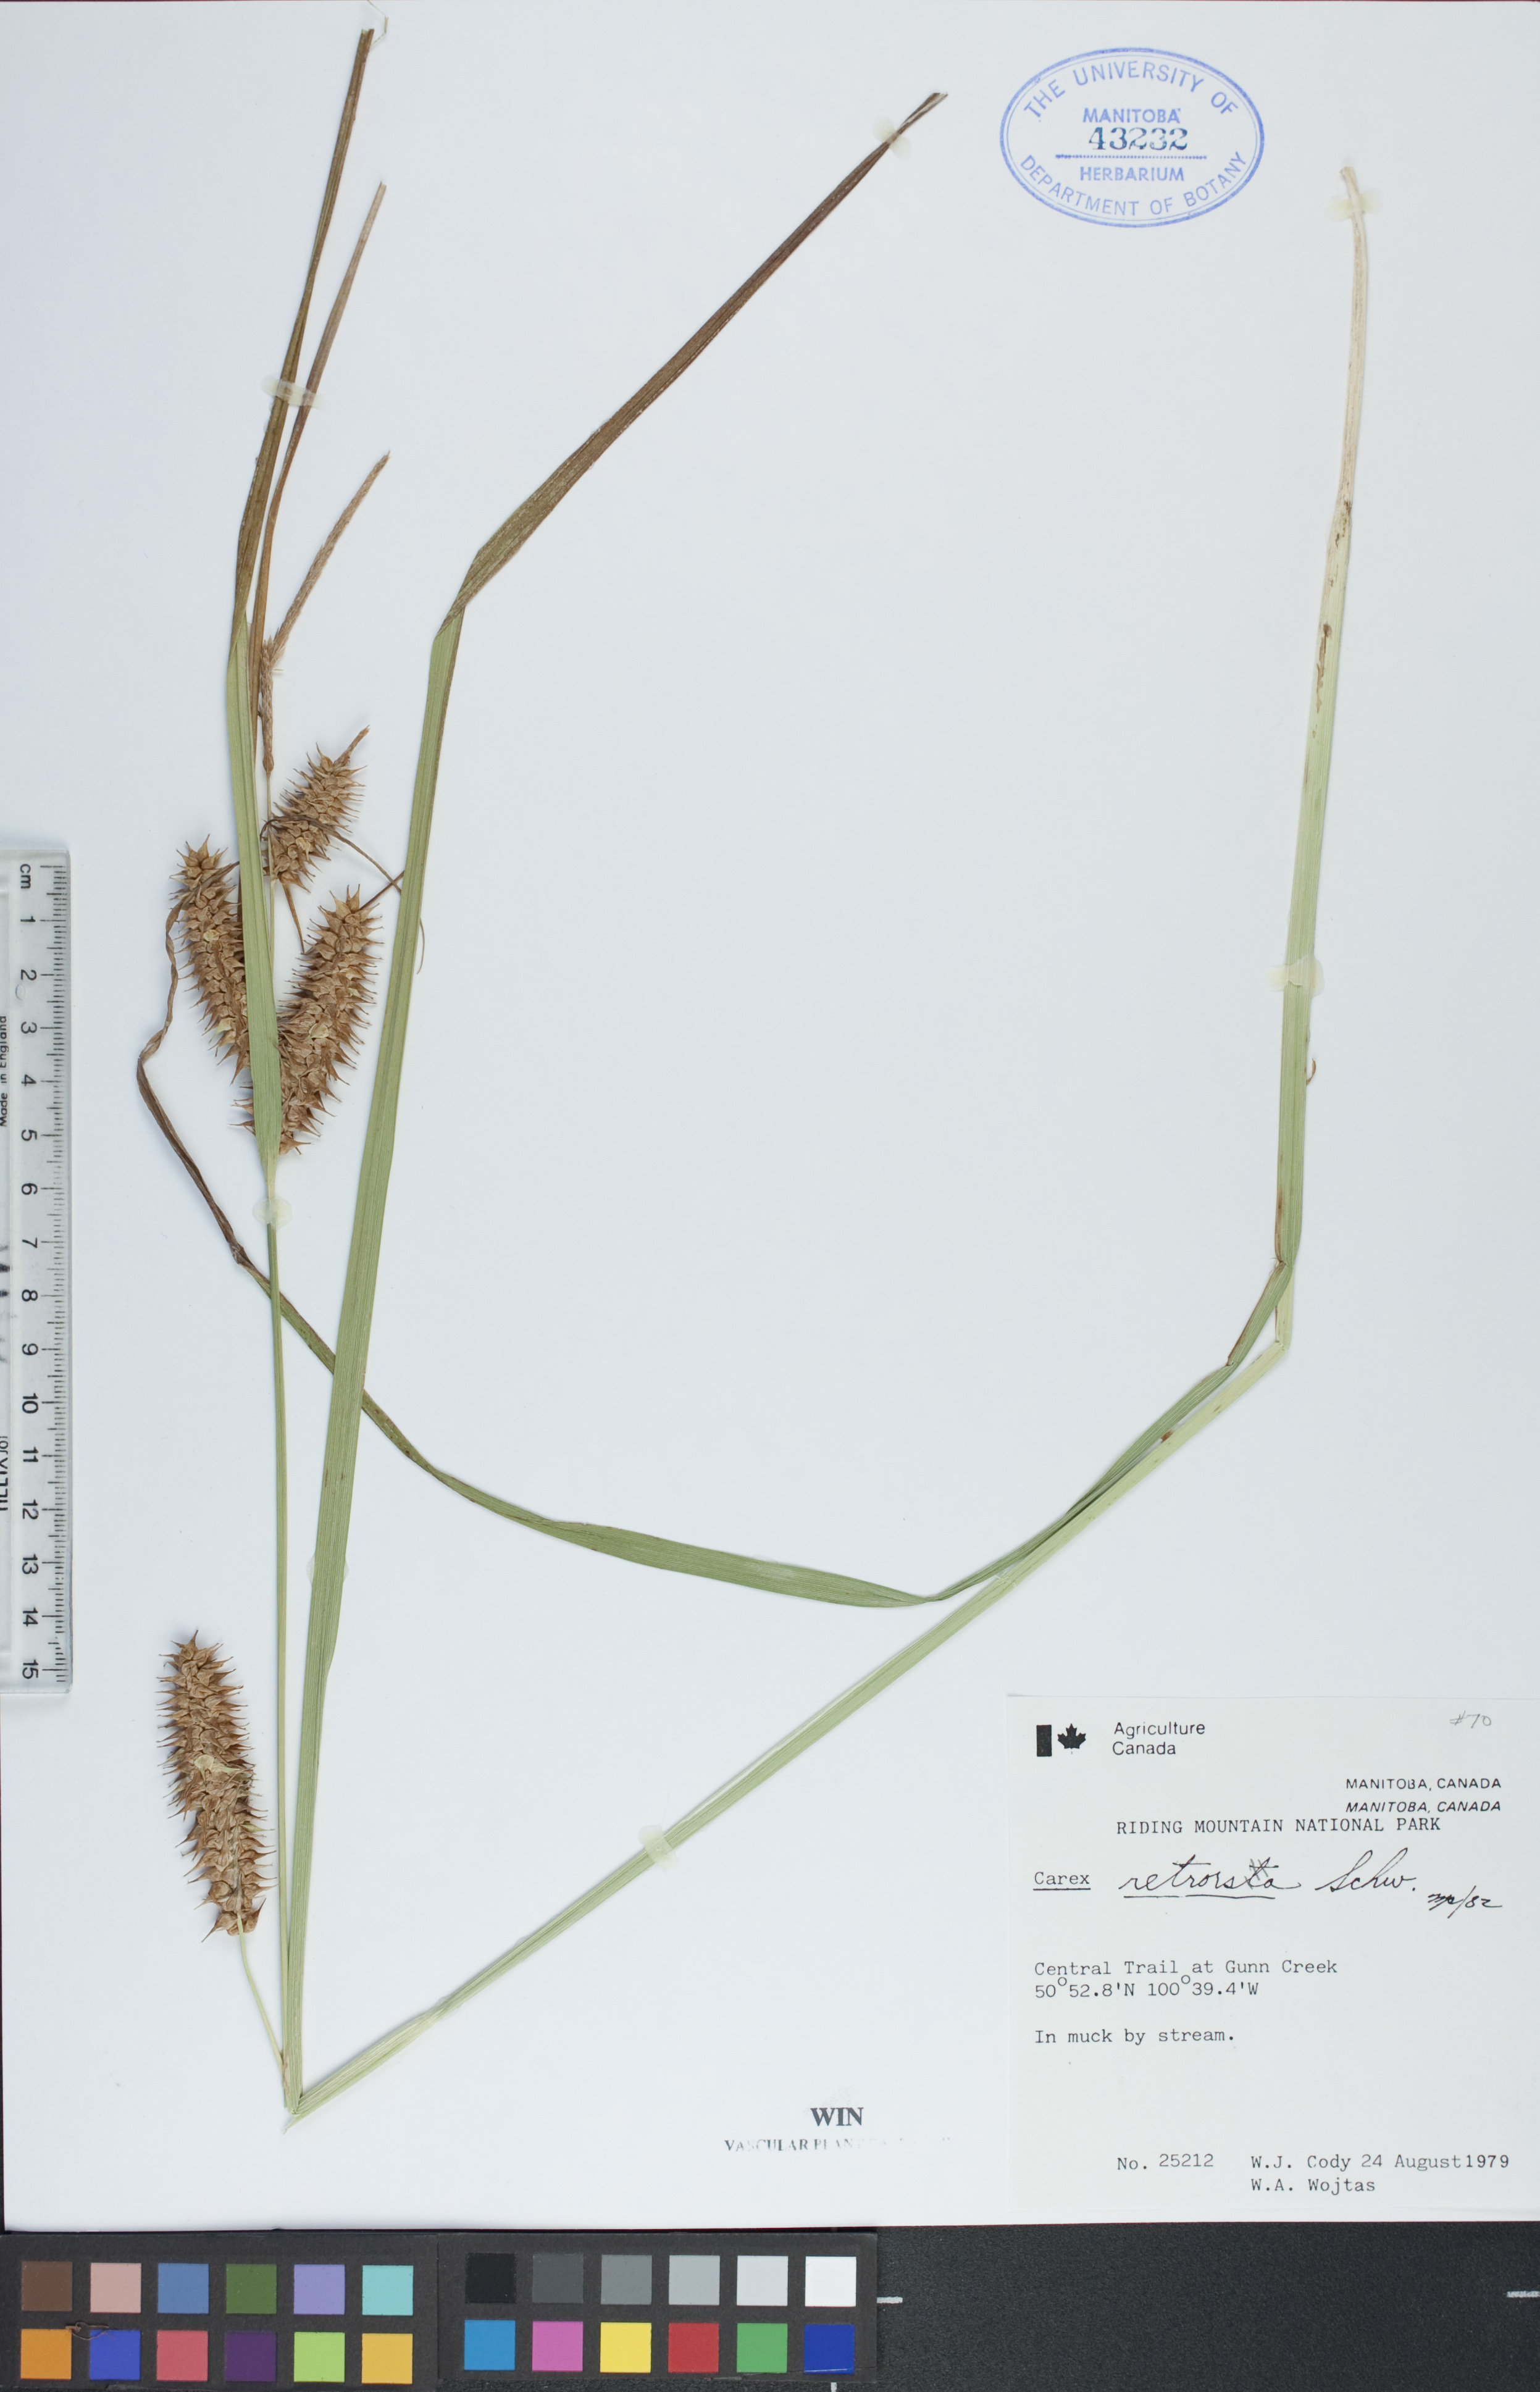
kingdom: Plantae
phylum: Tracheophyta
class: Liliopsida
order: Poales
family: Cyperaceae
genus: Carex
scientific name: Carex retrorsa
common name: Knot-sheath sedge
